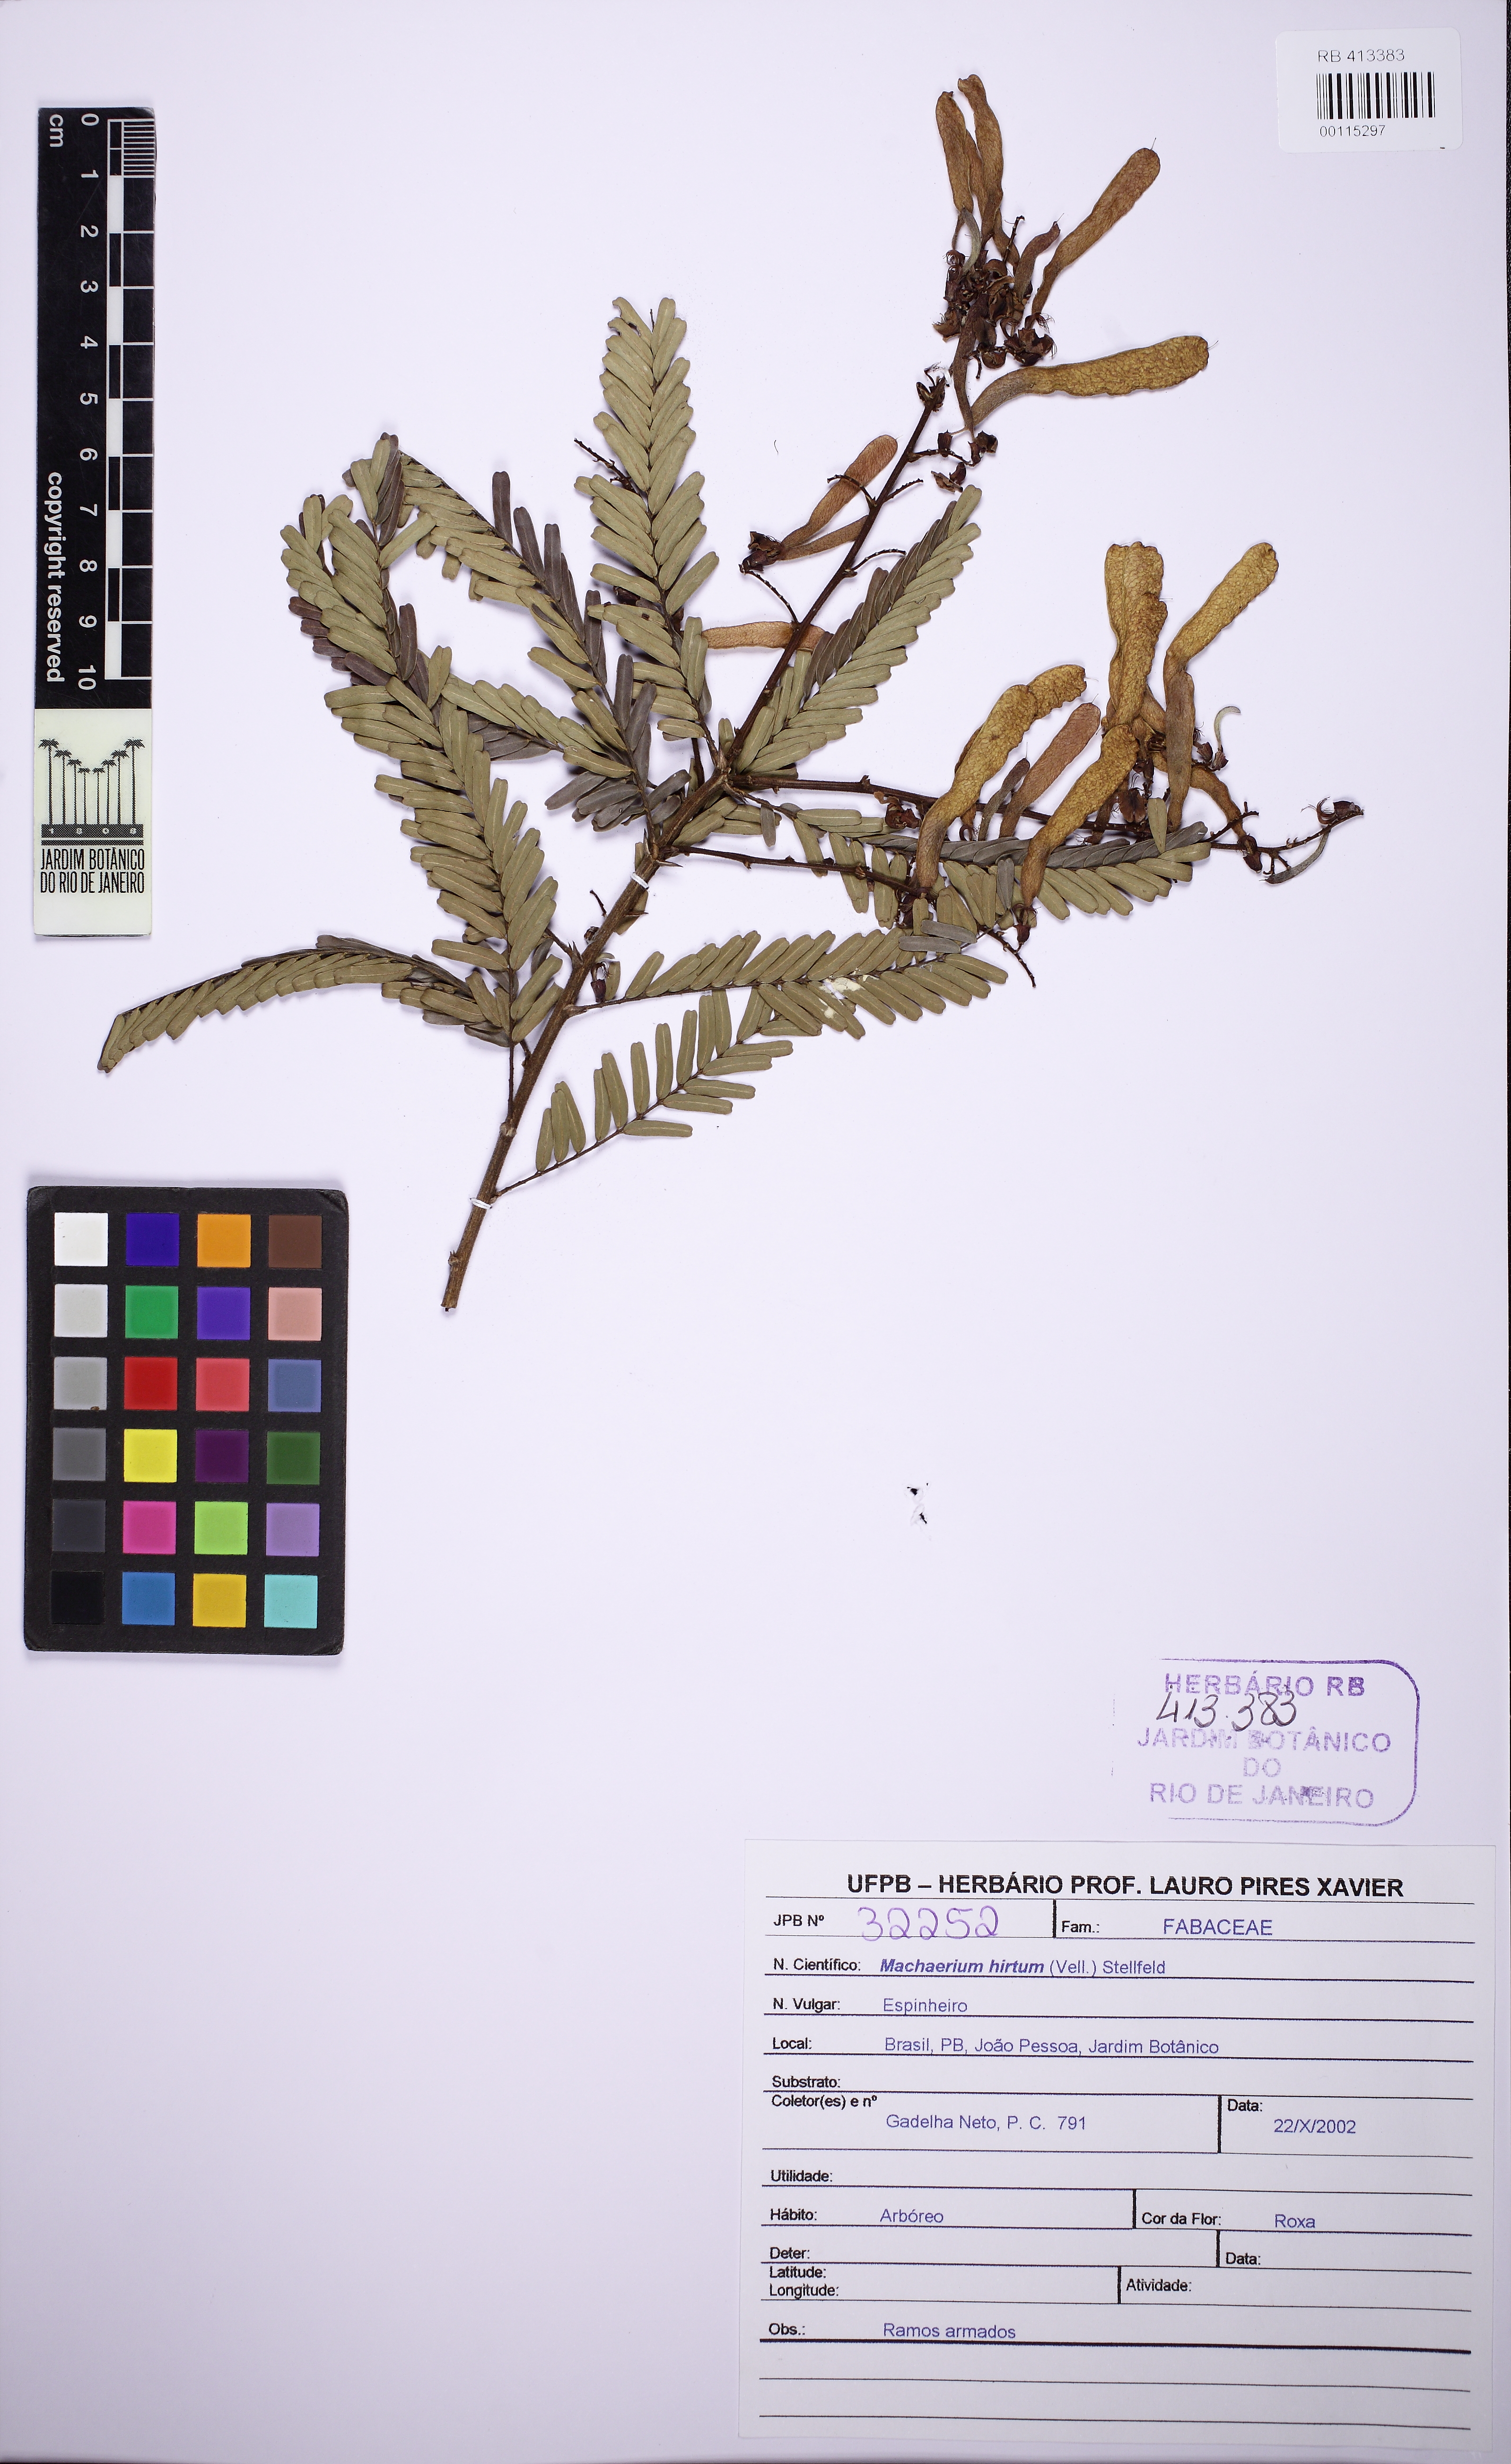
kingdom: Plantae
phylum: Tracheophyta
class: Magnoliopsida
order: Fabales
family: Fabaceae
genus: Machaerium
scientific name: Machaerium hirtum
